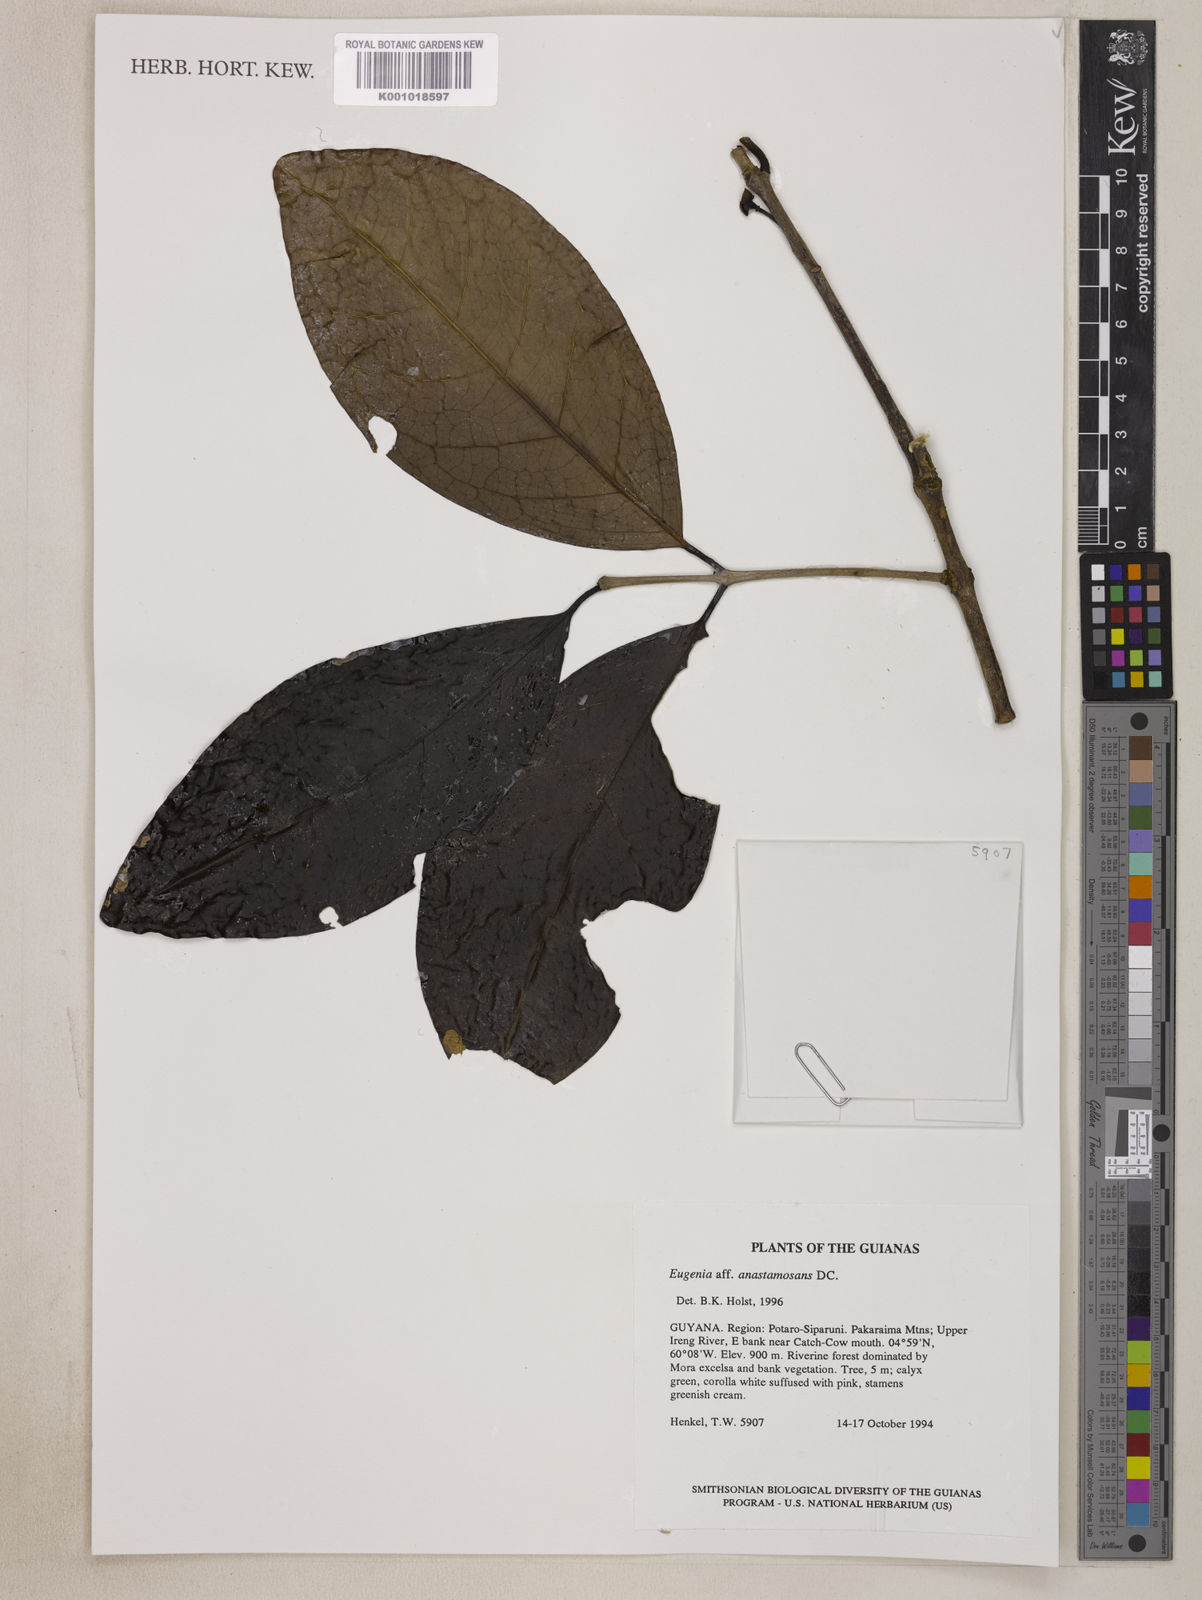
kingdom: Plantae
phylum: Tracheophyta
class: Magnoliopsida
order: Myrtales
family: Myrtaceae
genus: Eugenia
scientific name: Eugenia anastomosans
